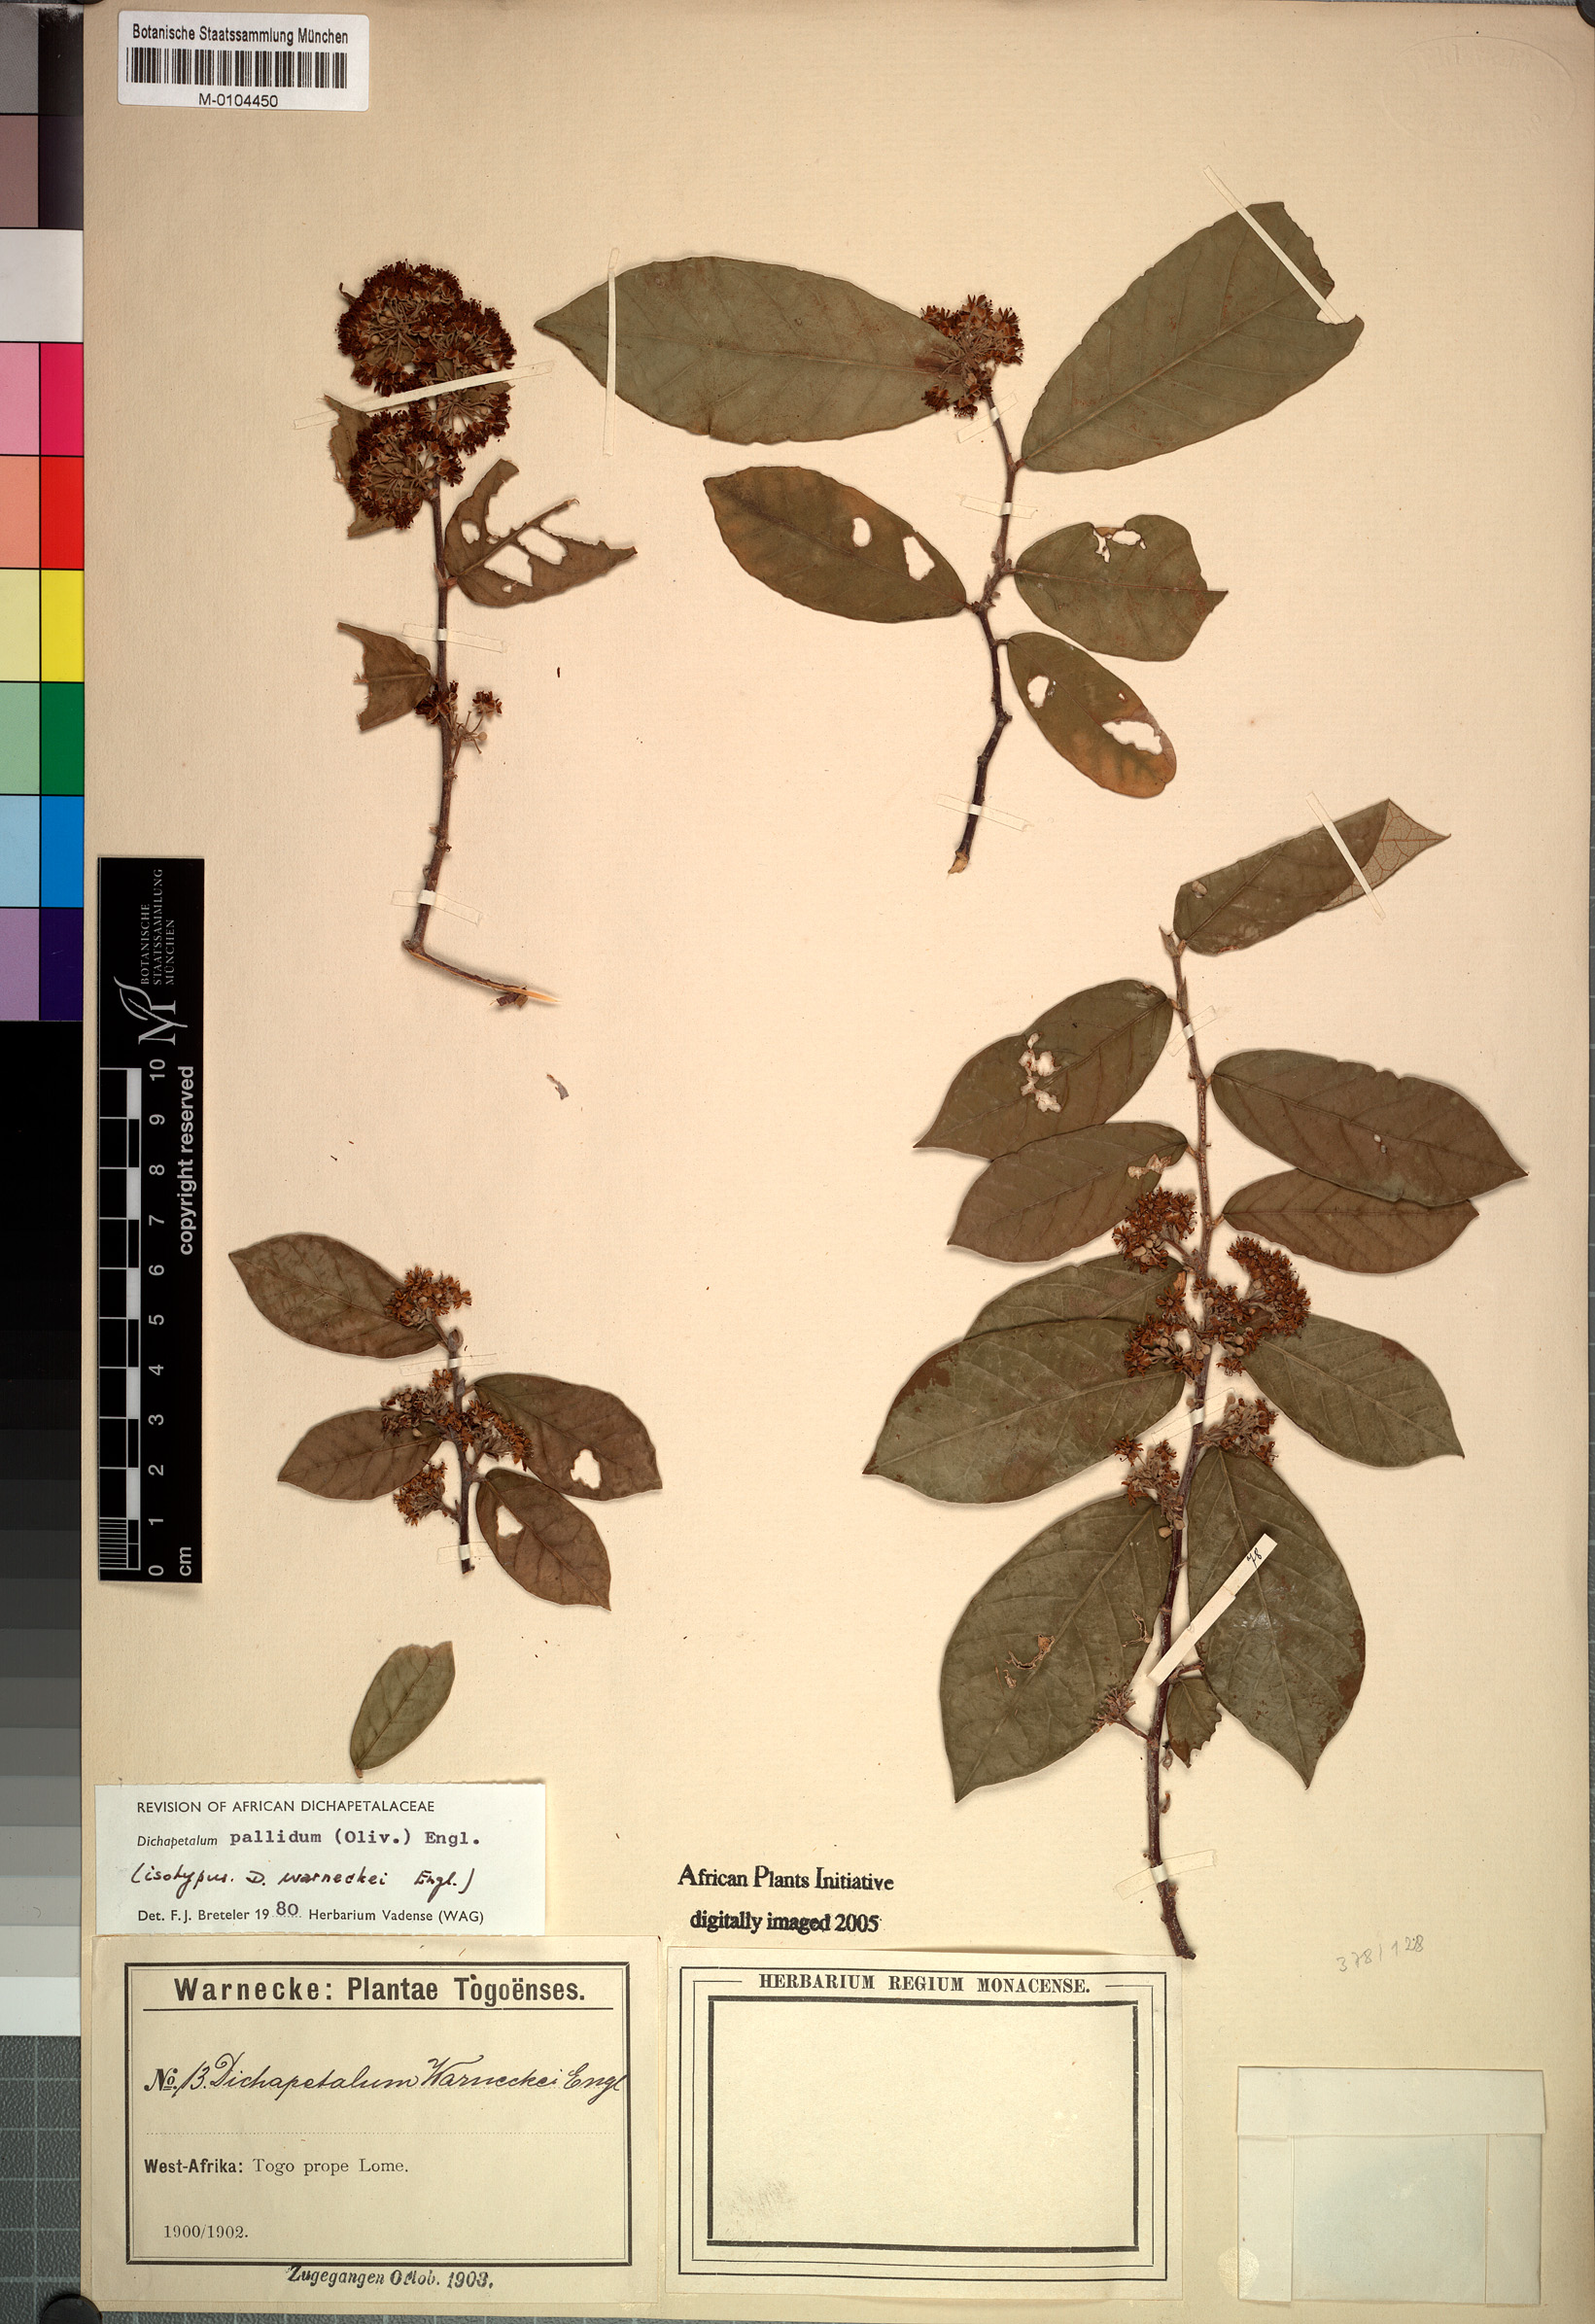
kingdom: Plantae
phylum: Tracheophyta
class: Magnoliopsida
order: Malpighiales
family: Dichapetalaceae
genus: Dichapetalum
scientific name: Dichapetalum pallidum
